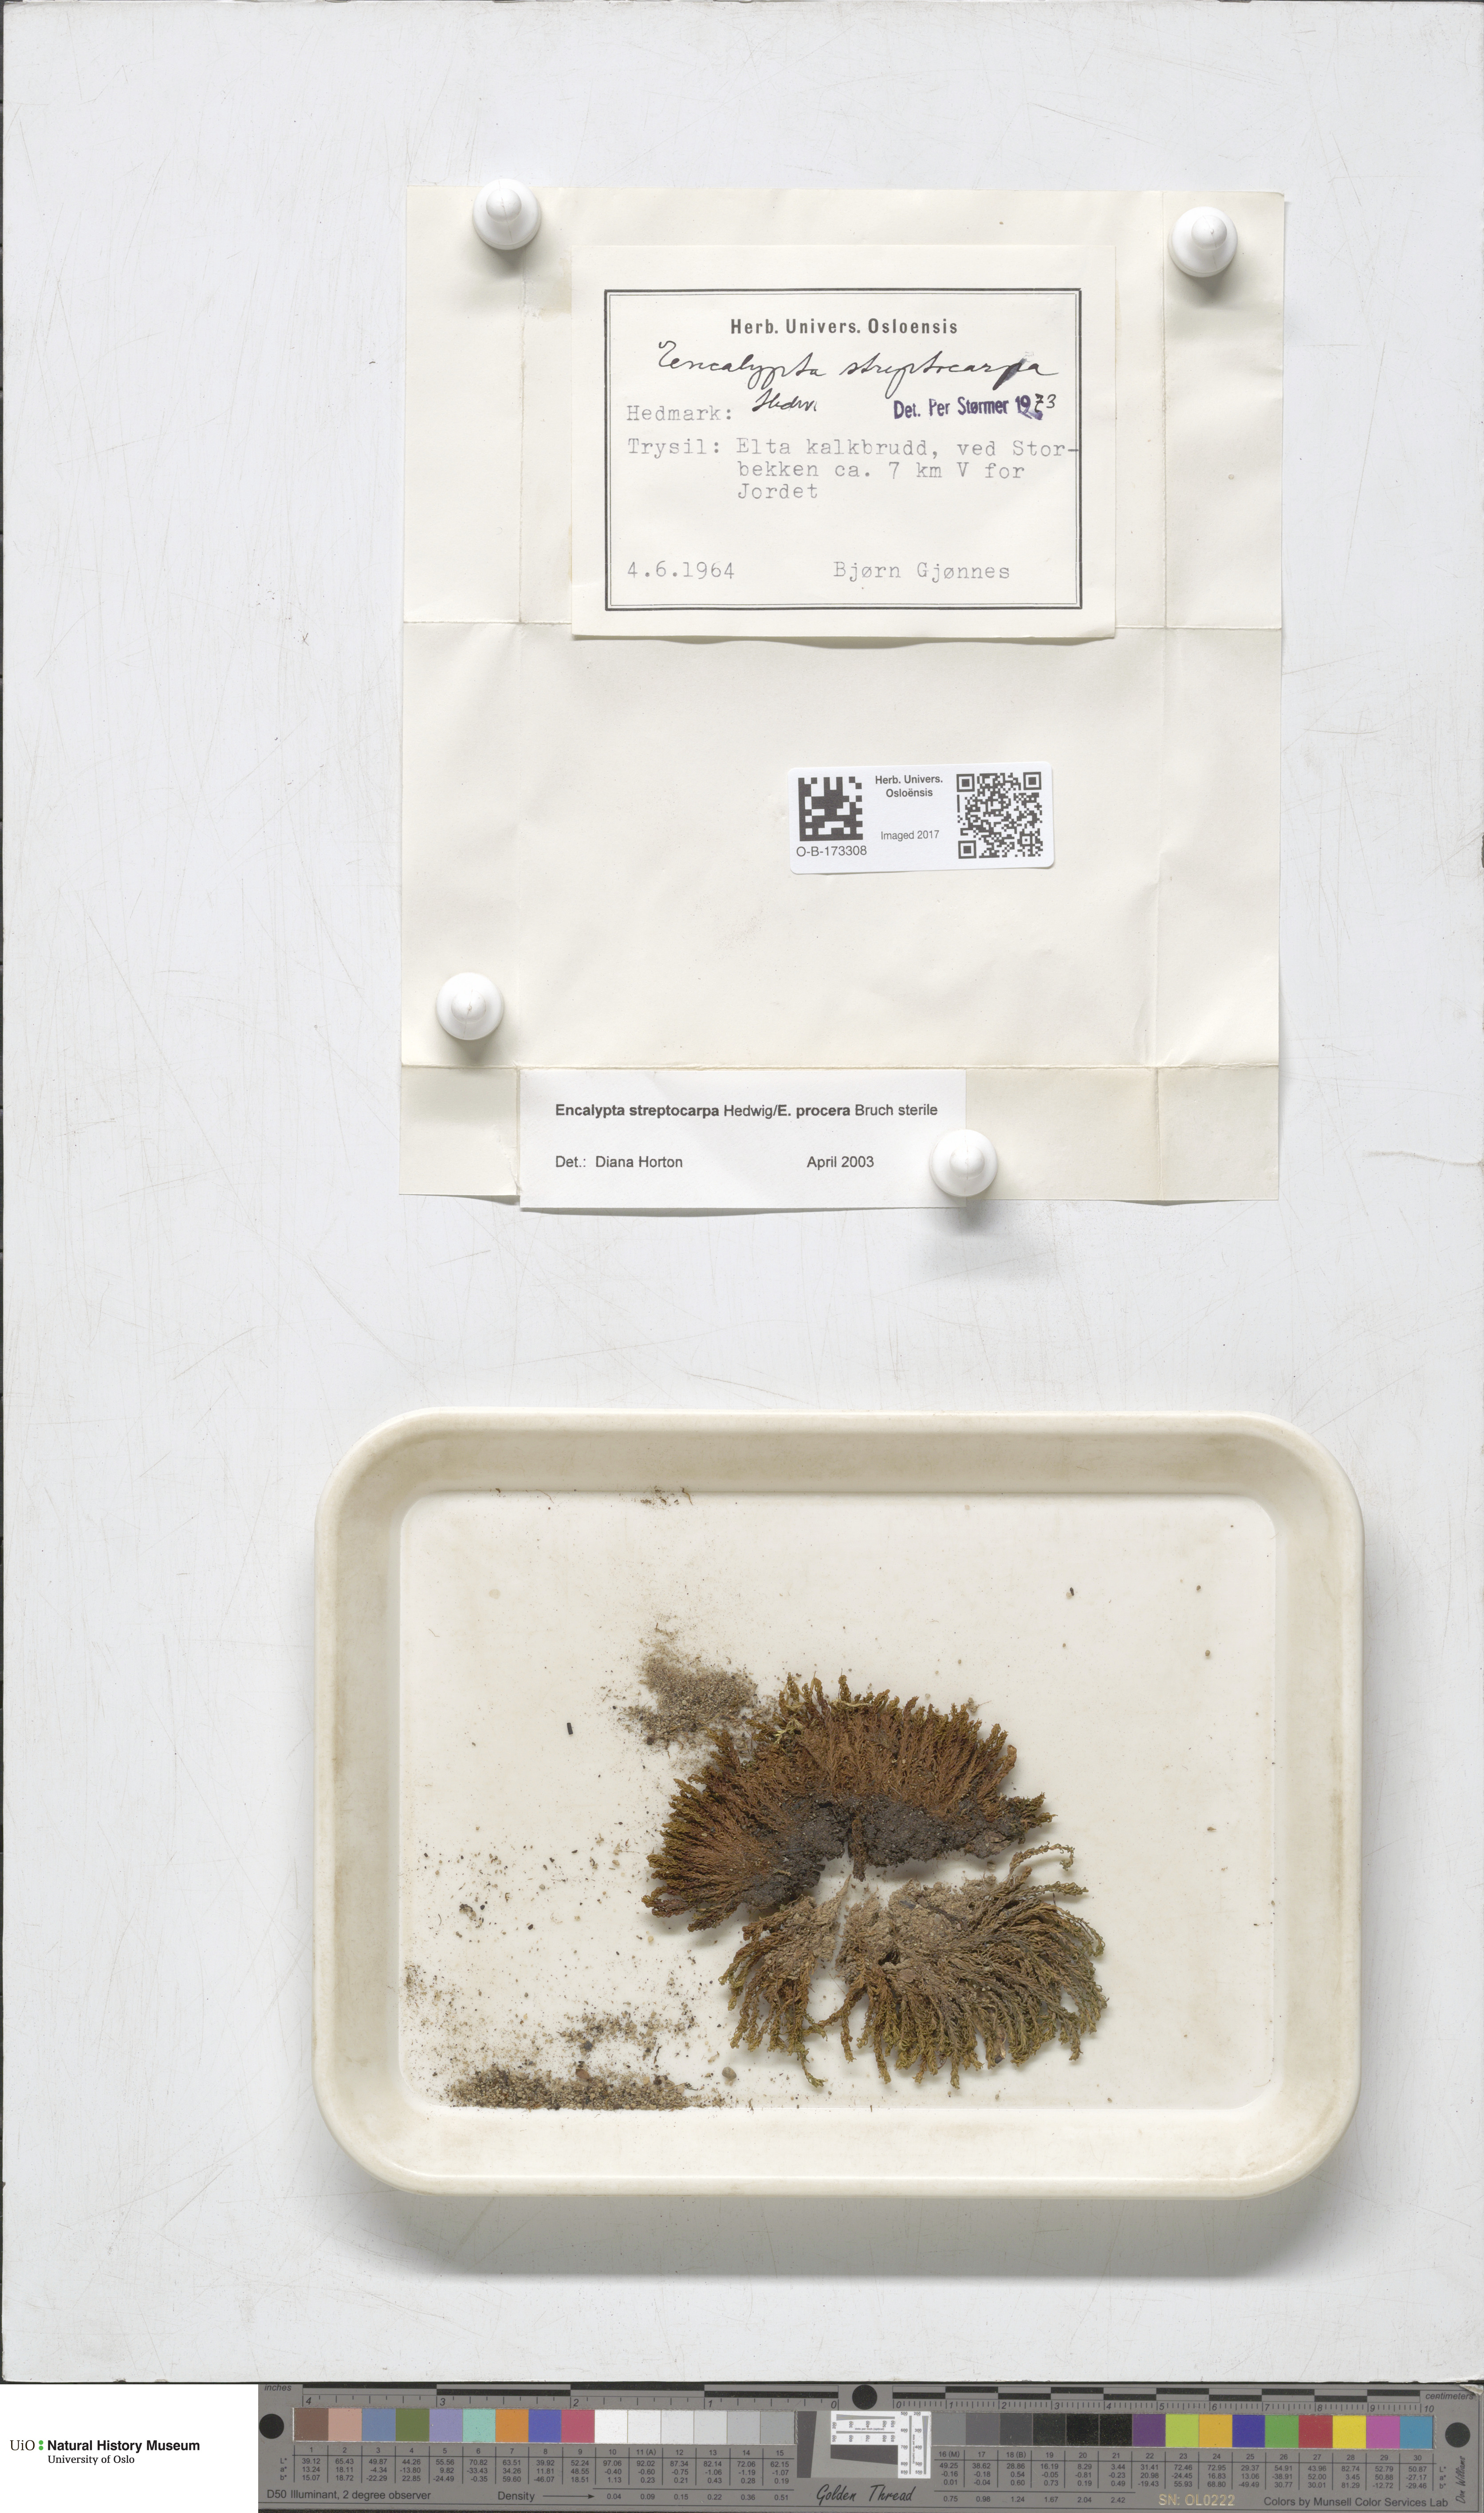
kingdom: Plantae
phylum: Bryophyta
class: Bryopsida
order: Encalyptales
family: Encalyptaceae
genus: Encalypta
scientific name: Encalypta
